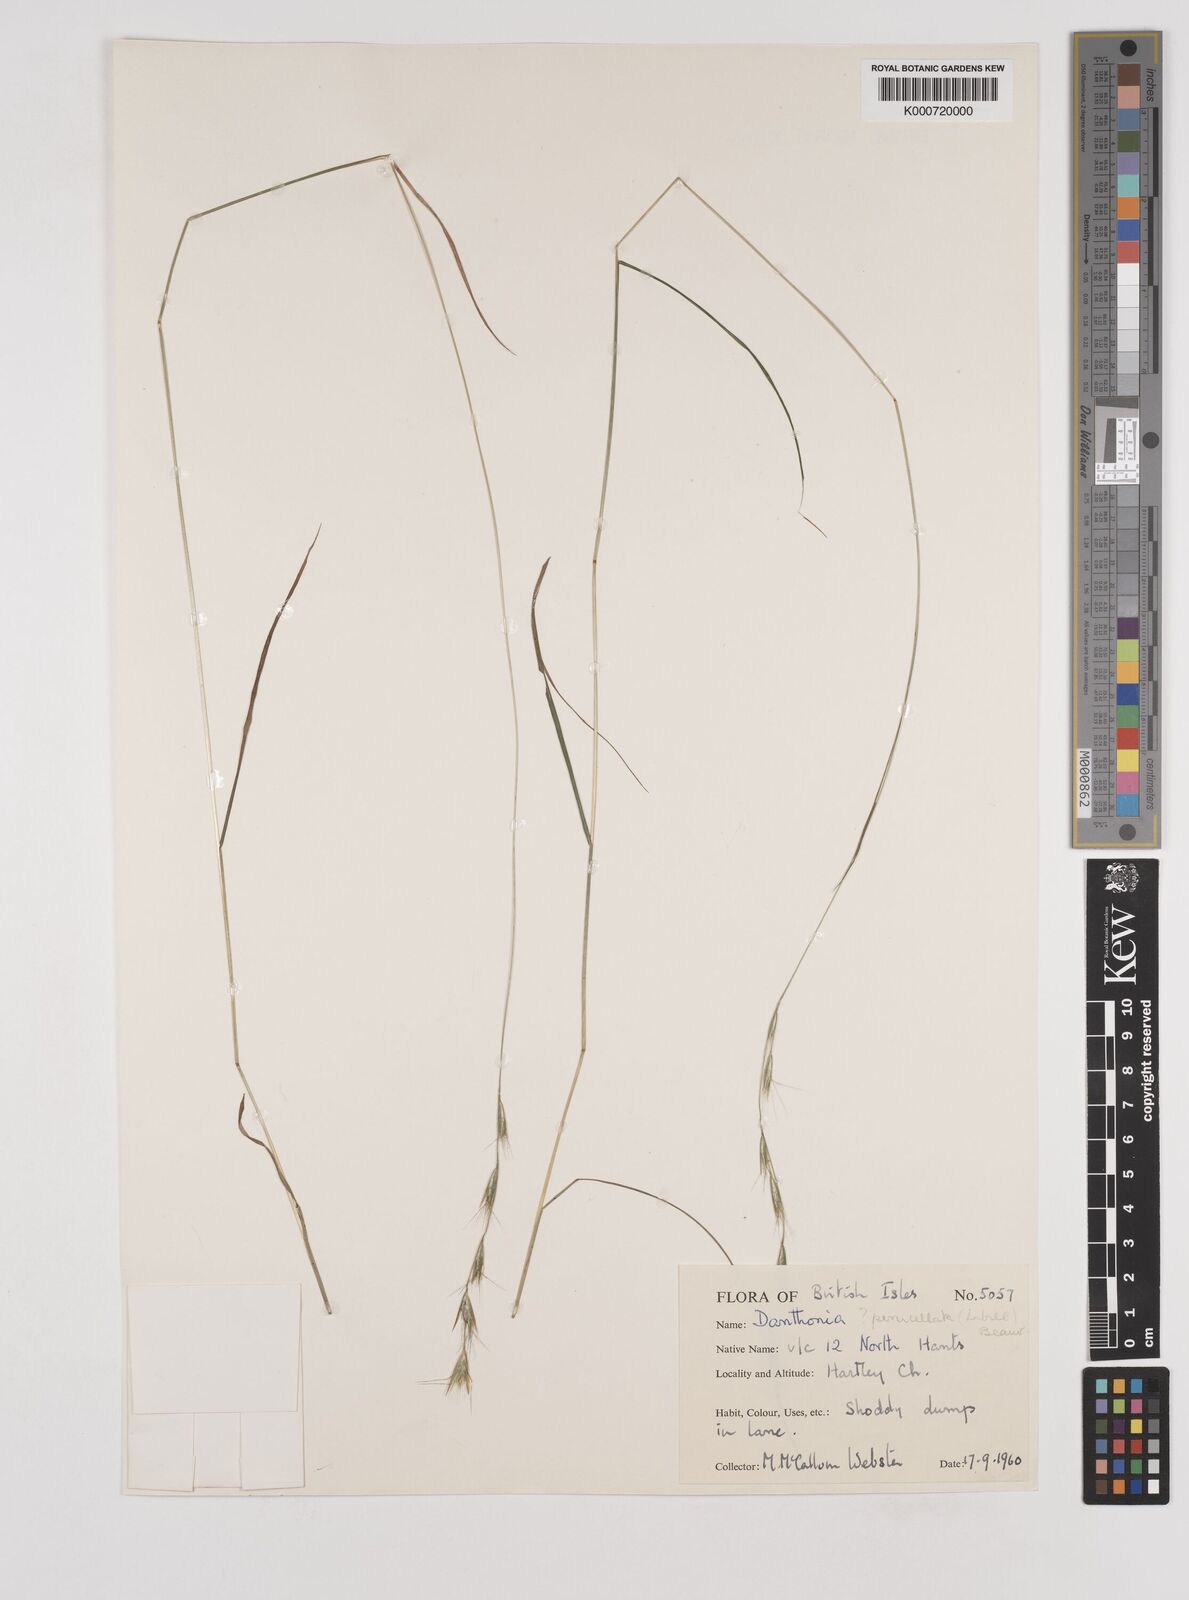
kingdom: Plantae
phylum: Tracheophyta
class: Liliopsida
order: Poales
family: Poaceae
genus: Rytidosperma
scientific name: Rytidosperma
